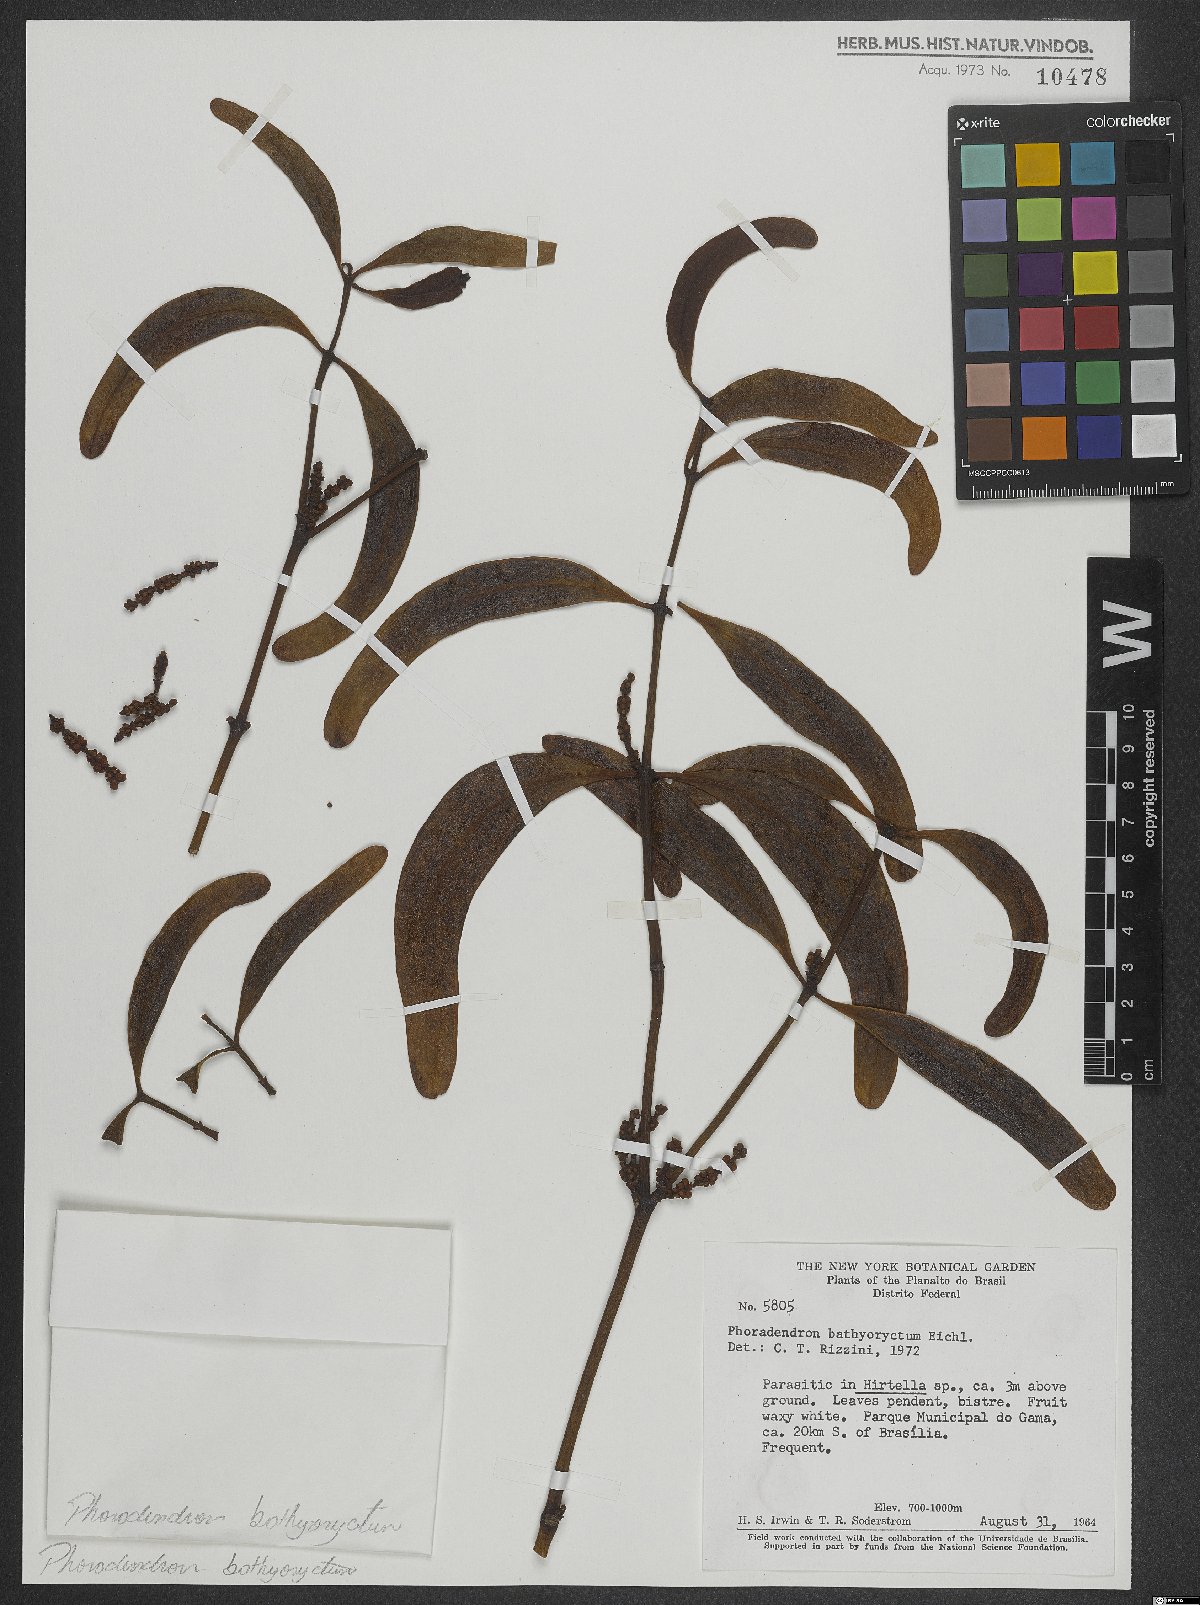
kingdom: Plantae
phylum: Tracheophyta
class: Magnoliopsida
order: Santalales
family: Viscaceae
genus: Phoradendron
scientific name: Phoradendron bathyoryctum
